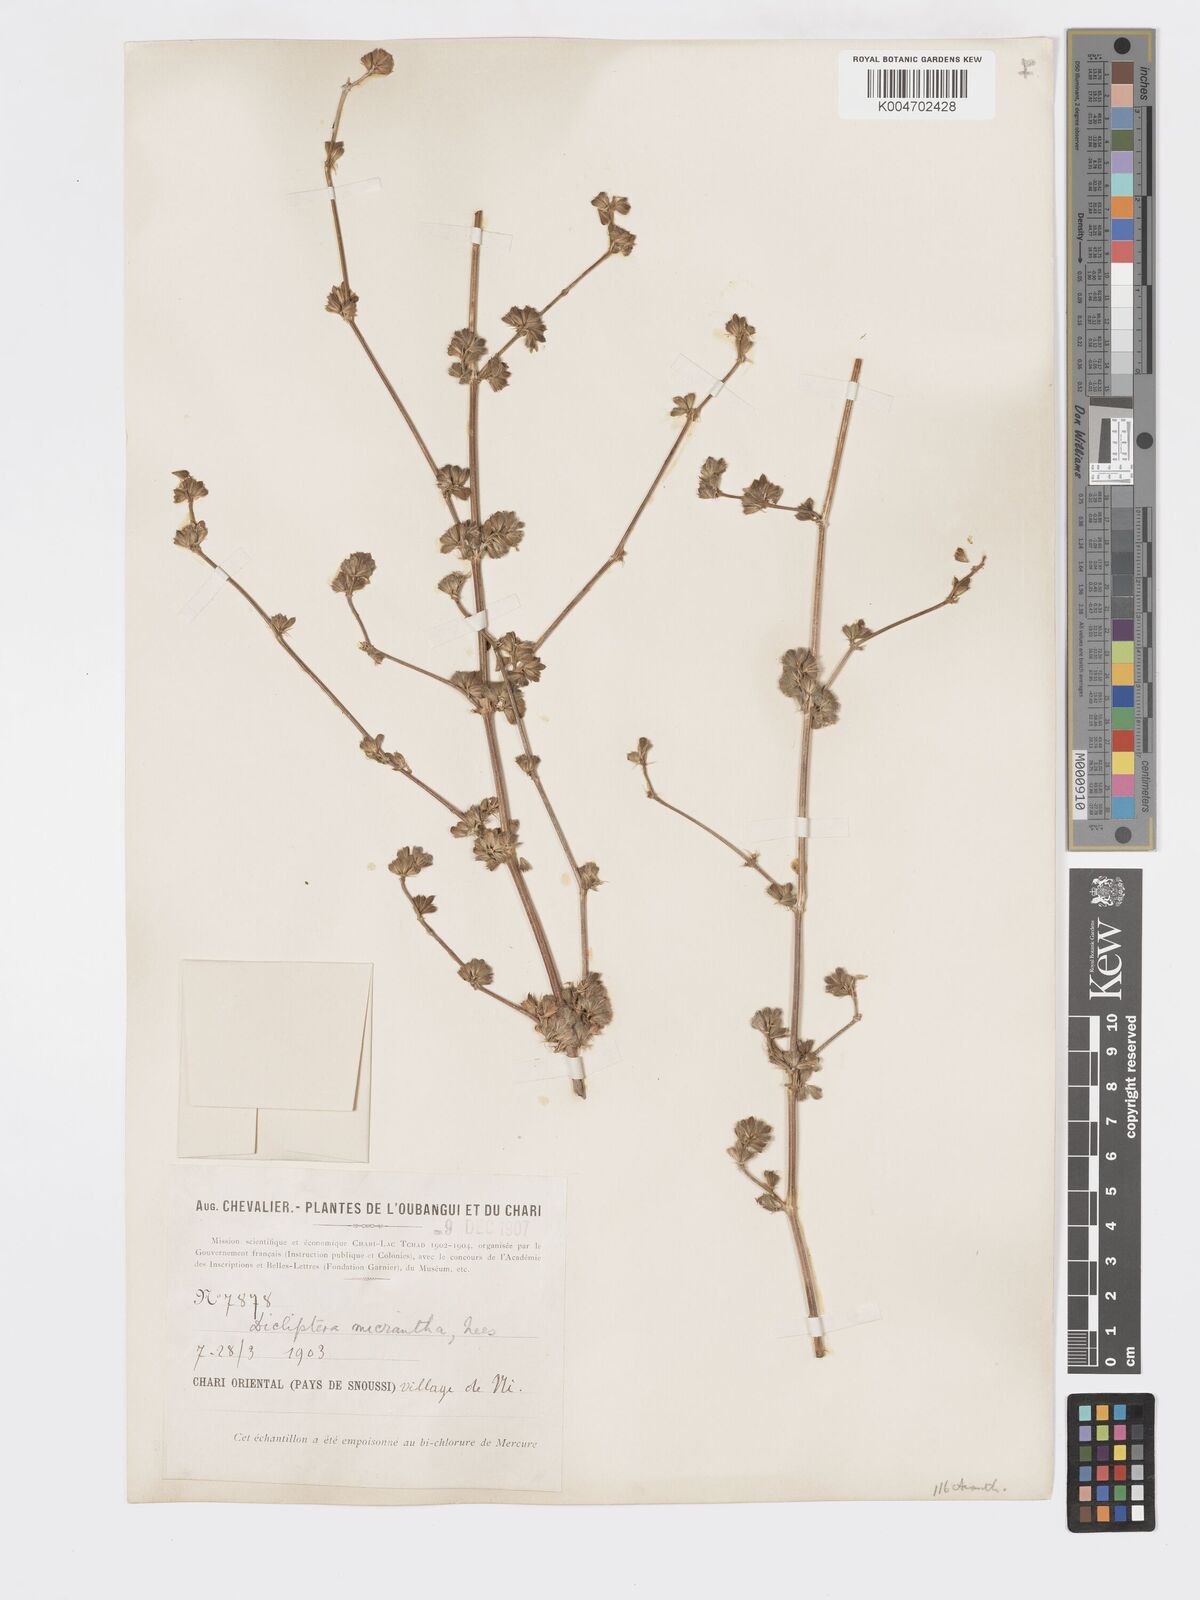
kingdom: Plantae
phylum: Tracheophyta
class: Magnoliopsida
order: Lamiales
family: Acanthaceae
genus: Dicliptera
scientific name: Dicliptera verticillata
